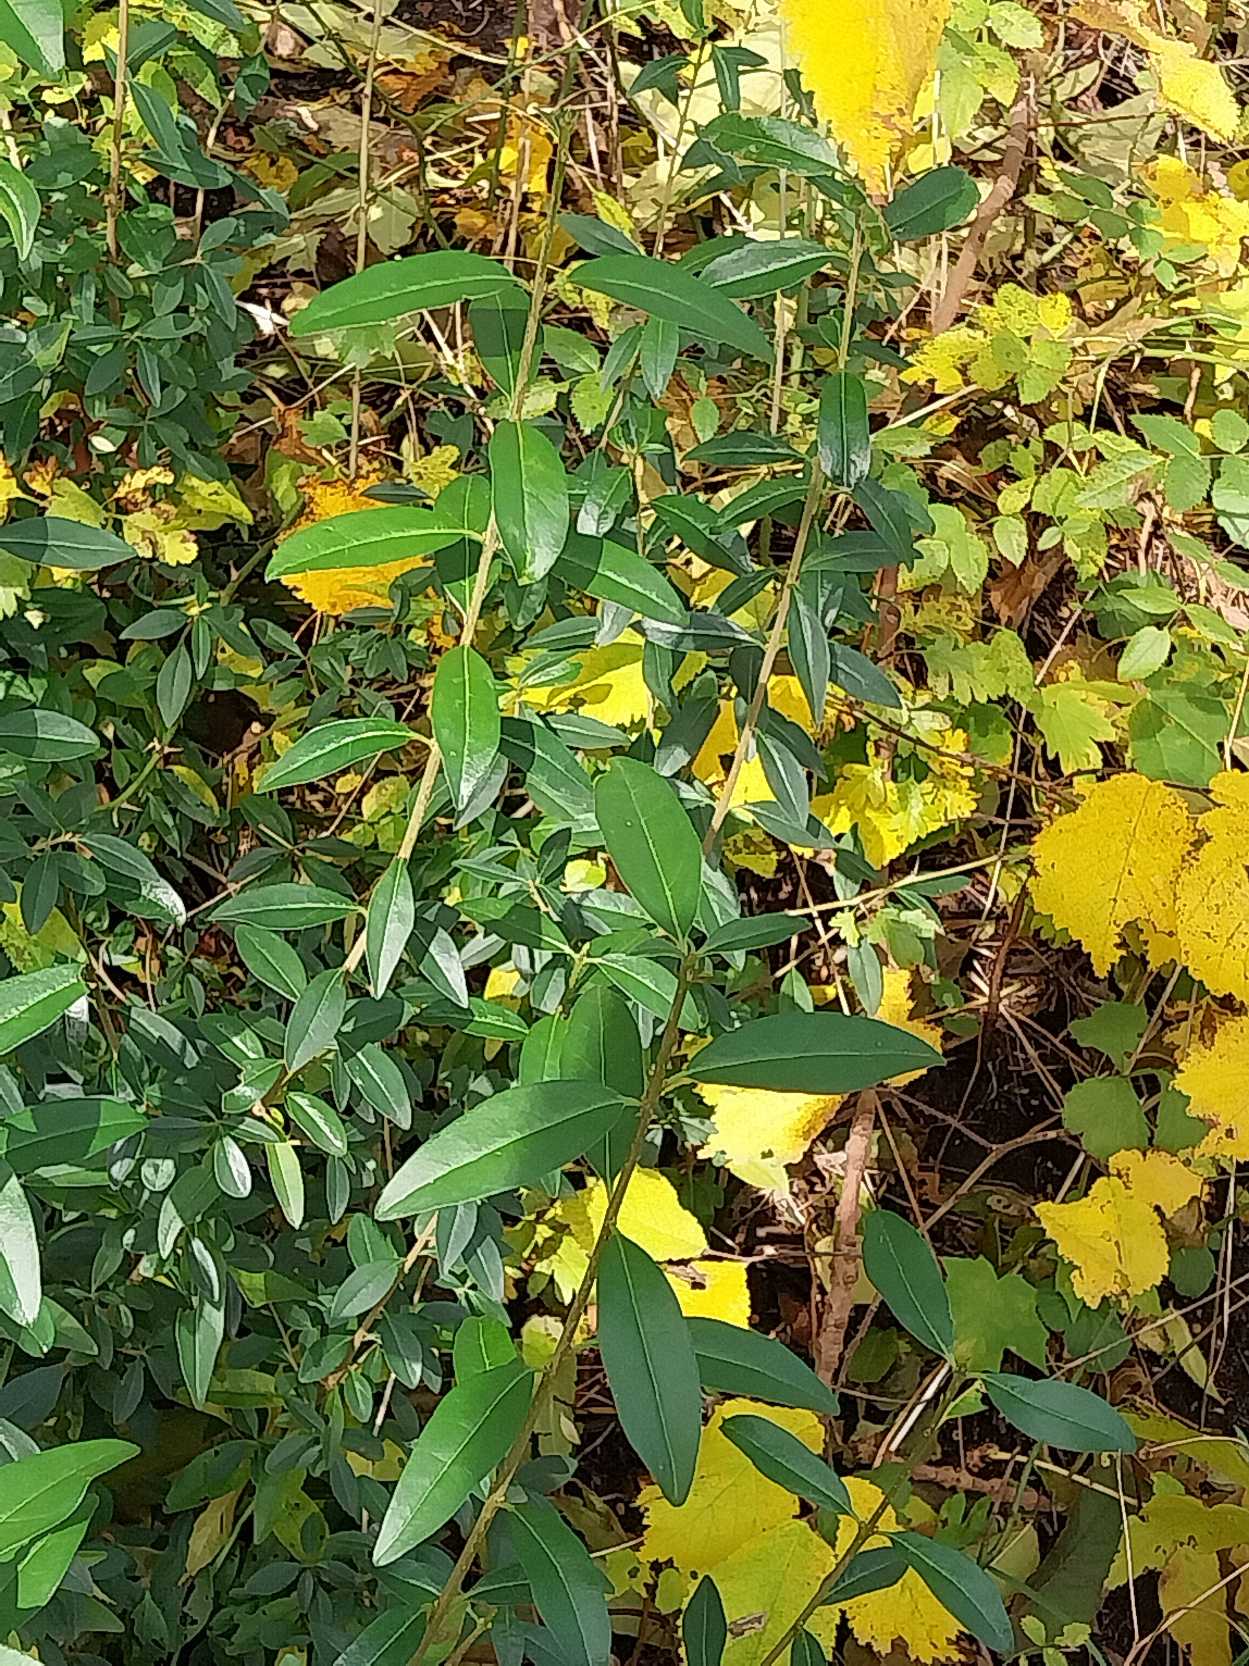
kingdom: Plantae
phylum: Tracheophyta
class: Magnoliopsida
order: Lamiales
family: Oleaceae
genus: Ligustrum
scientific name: Ligustrum vulgare
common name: Liguster
